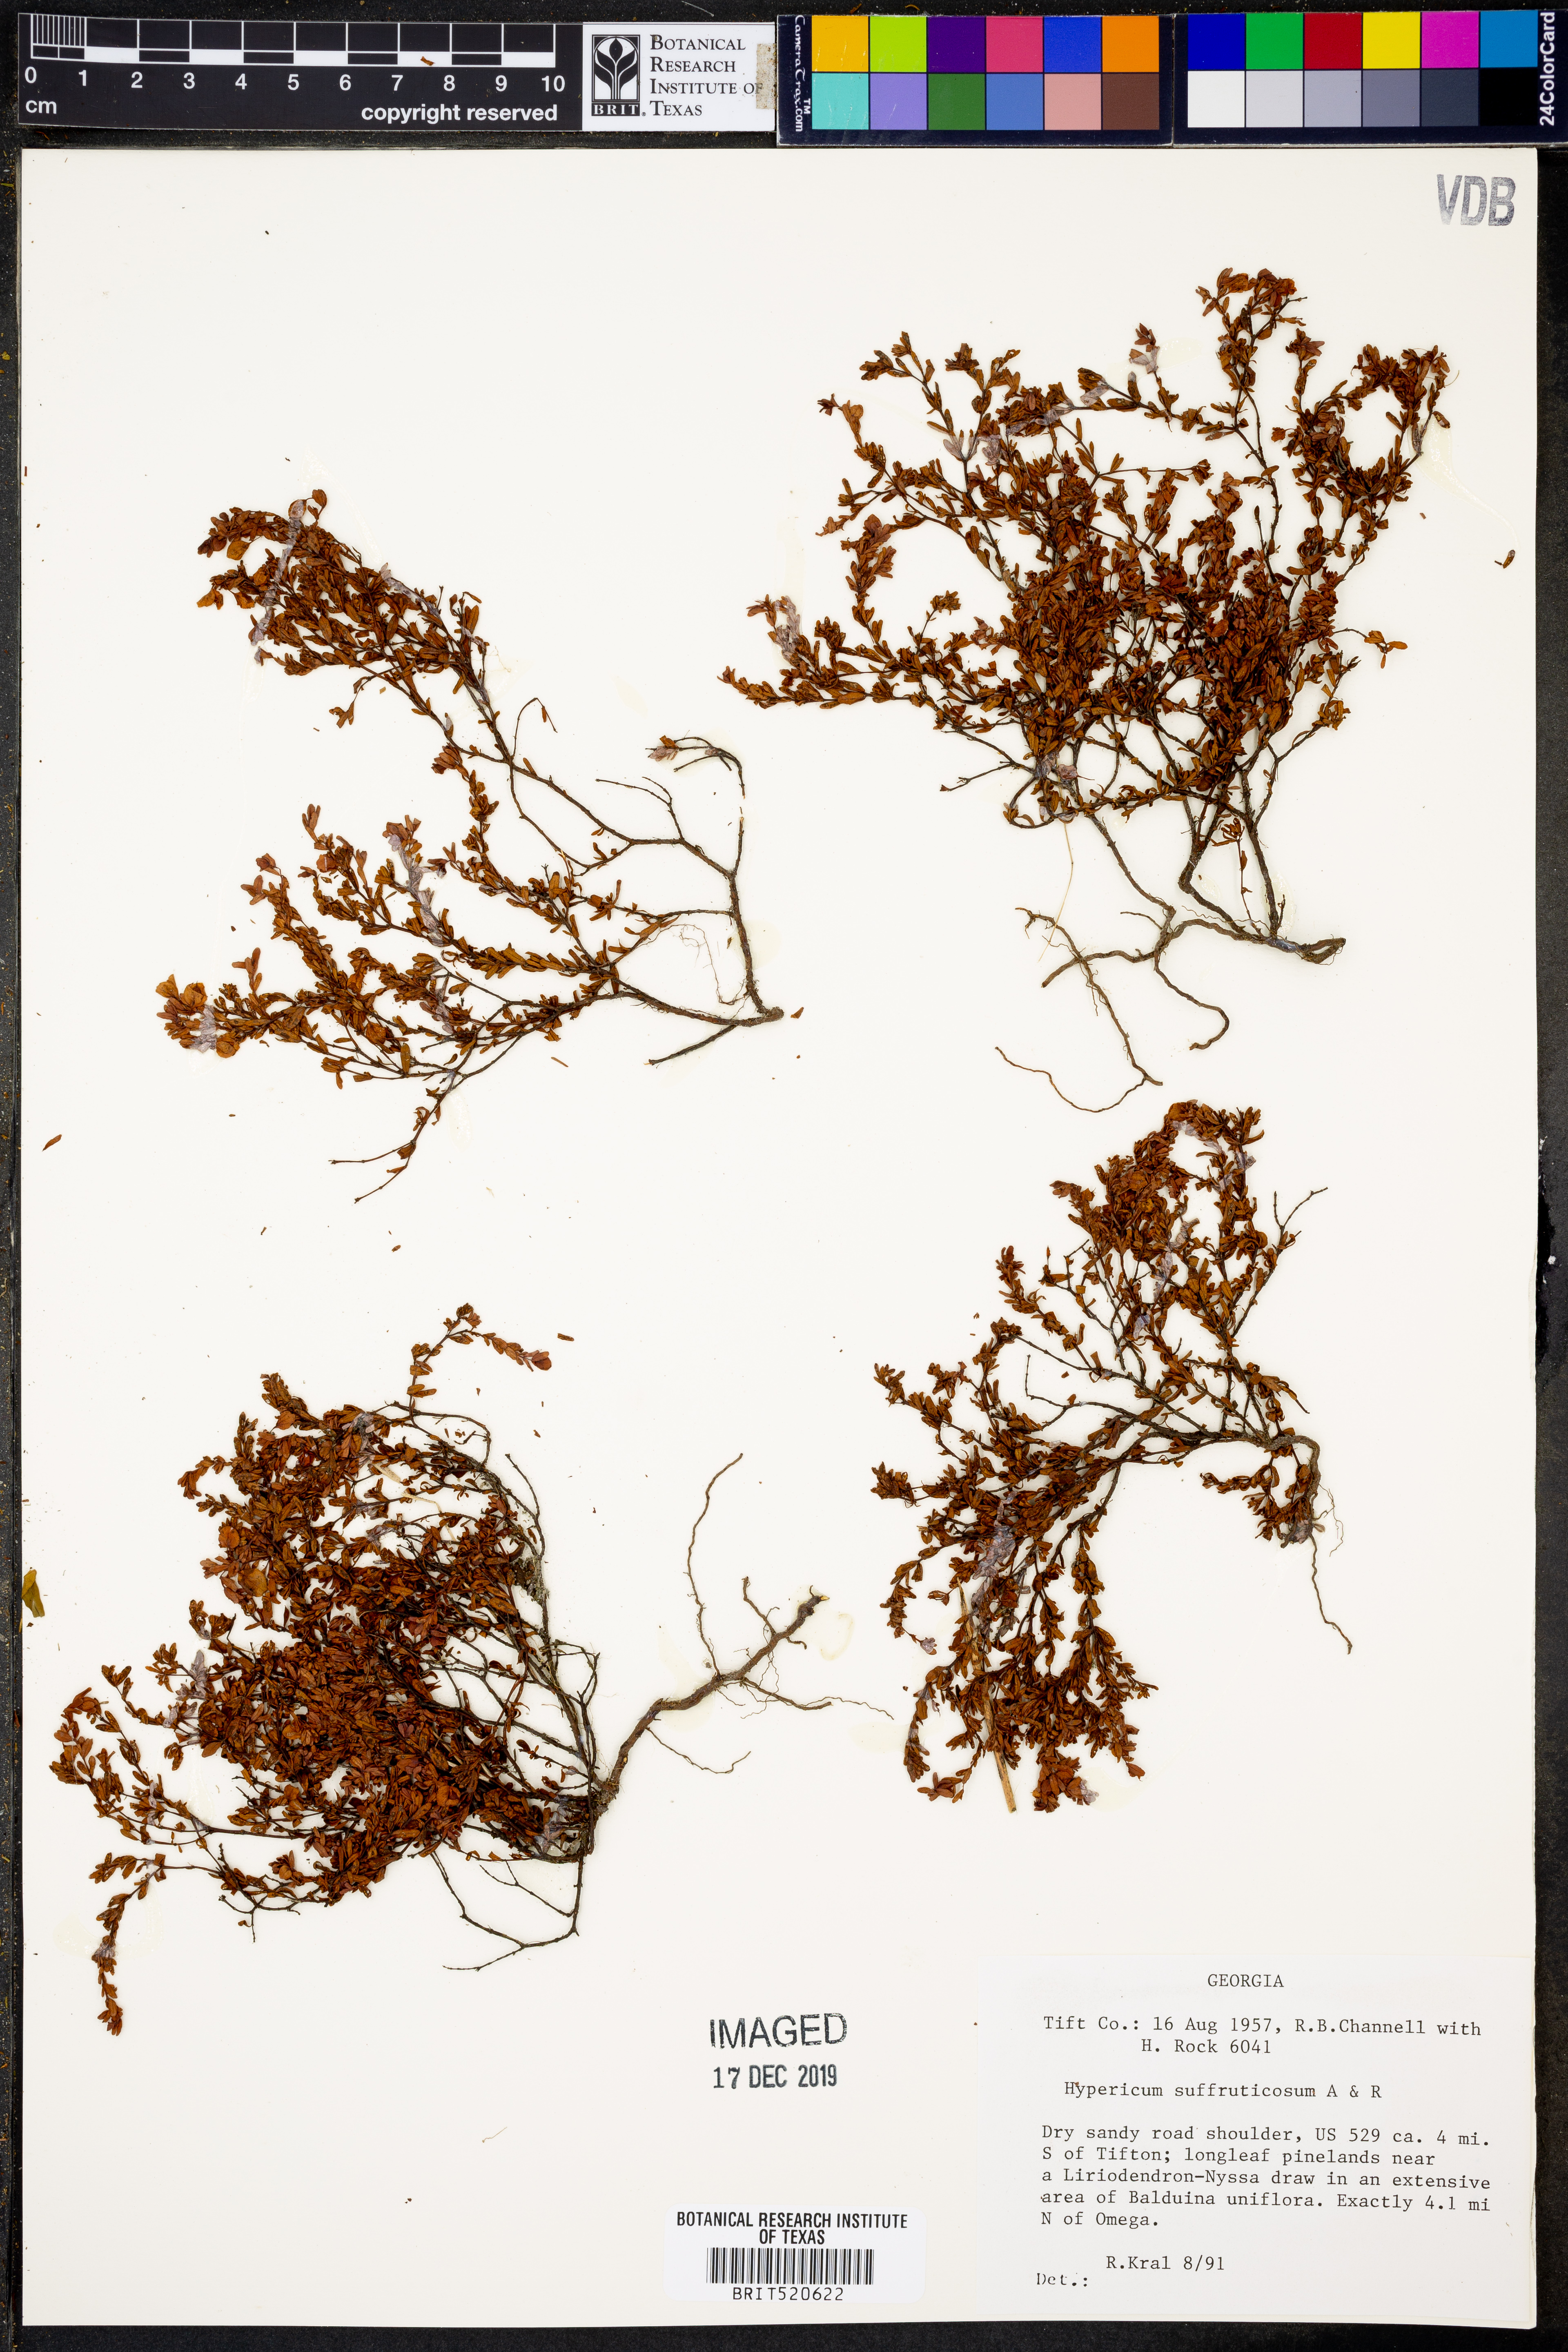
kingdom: Plantae
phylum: Tracheophyta
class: Magnoliopsida
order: Malpighiales
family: Hypericaceae
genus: Hypericum
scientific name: Hypericum suffruticosum
